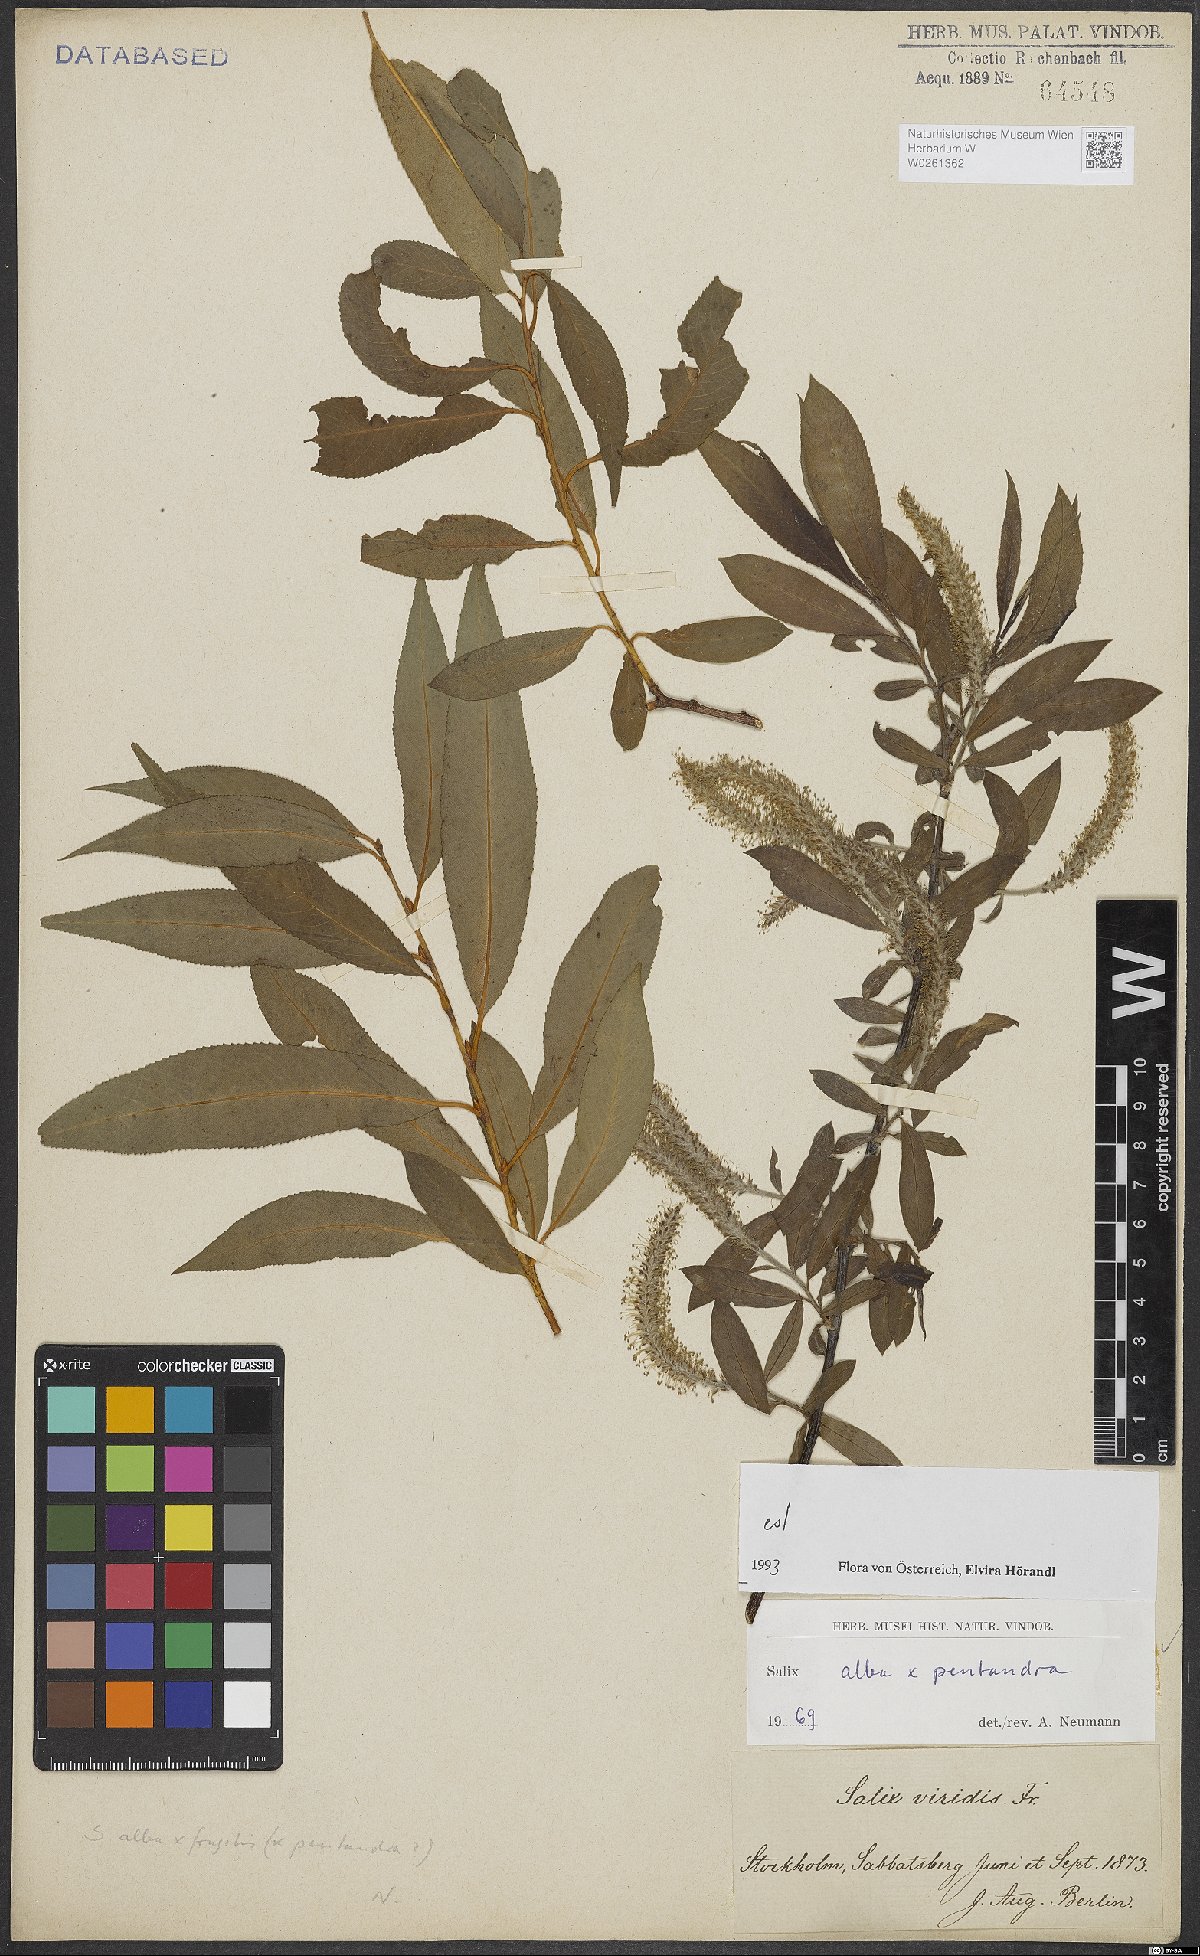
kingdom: Plantae
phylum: Tracheophyta
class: Magnoliopsida
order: Malpighiales
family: Salicaceae
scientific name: Salicaceae
